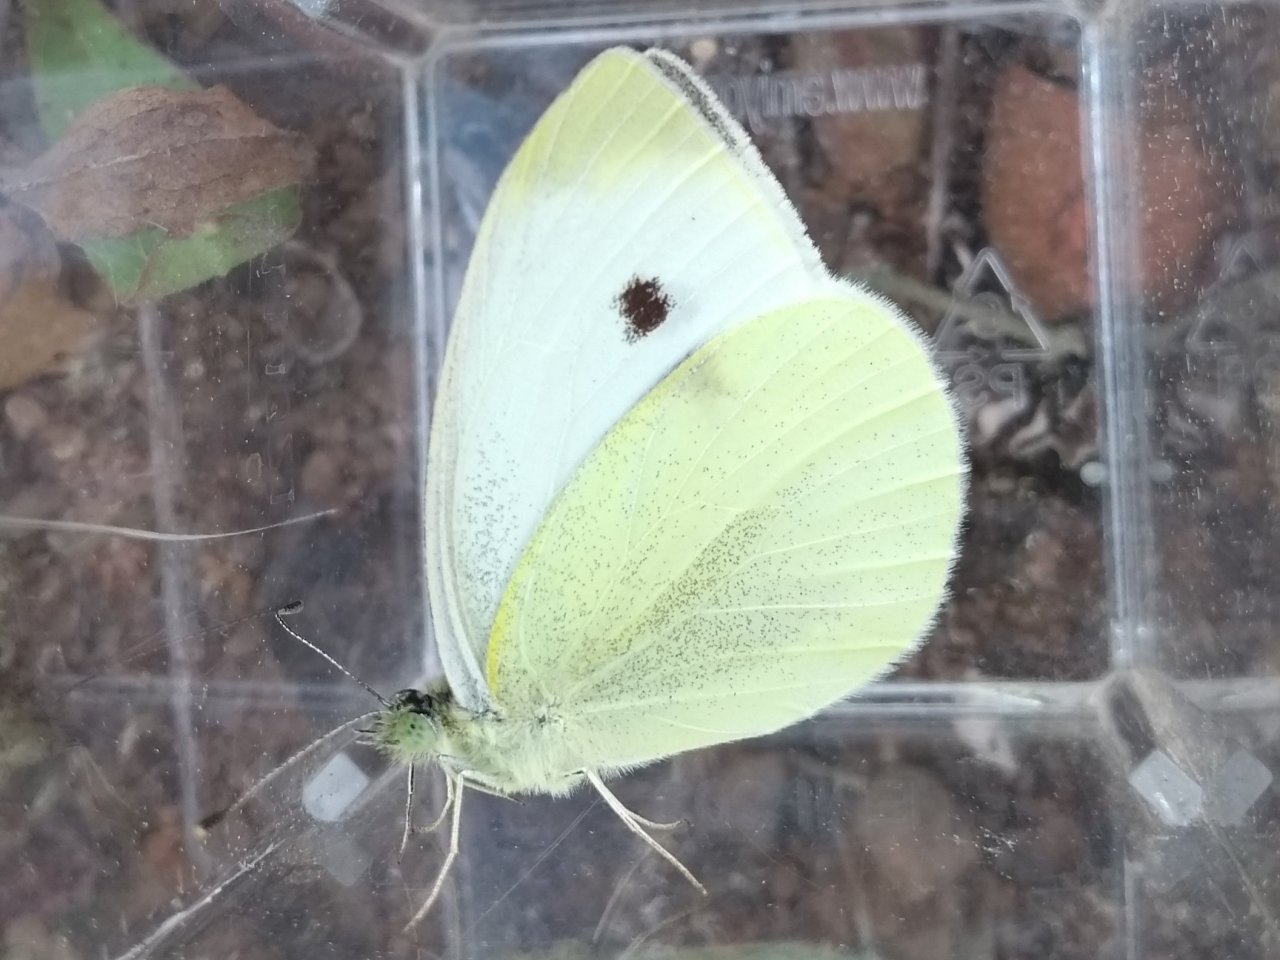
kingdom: Animalia
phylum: Arthropoda
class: Insecta
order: Lepidoptera
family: Pieridae
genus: Pieris
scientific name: Pieris rapae
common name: Cabbage White
